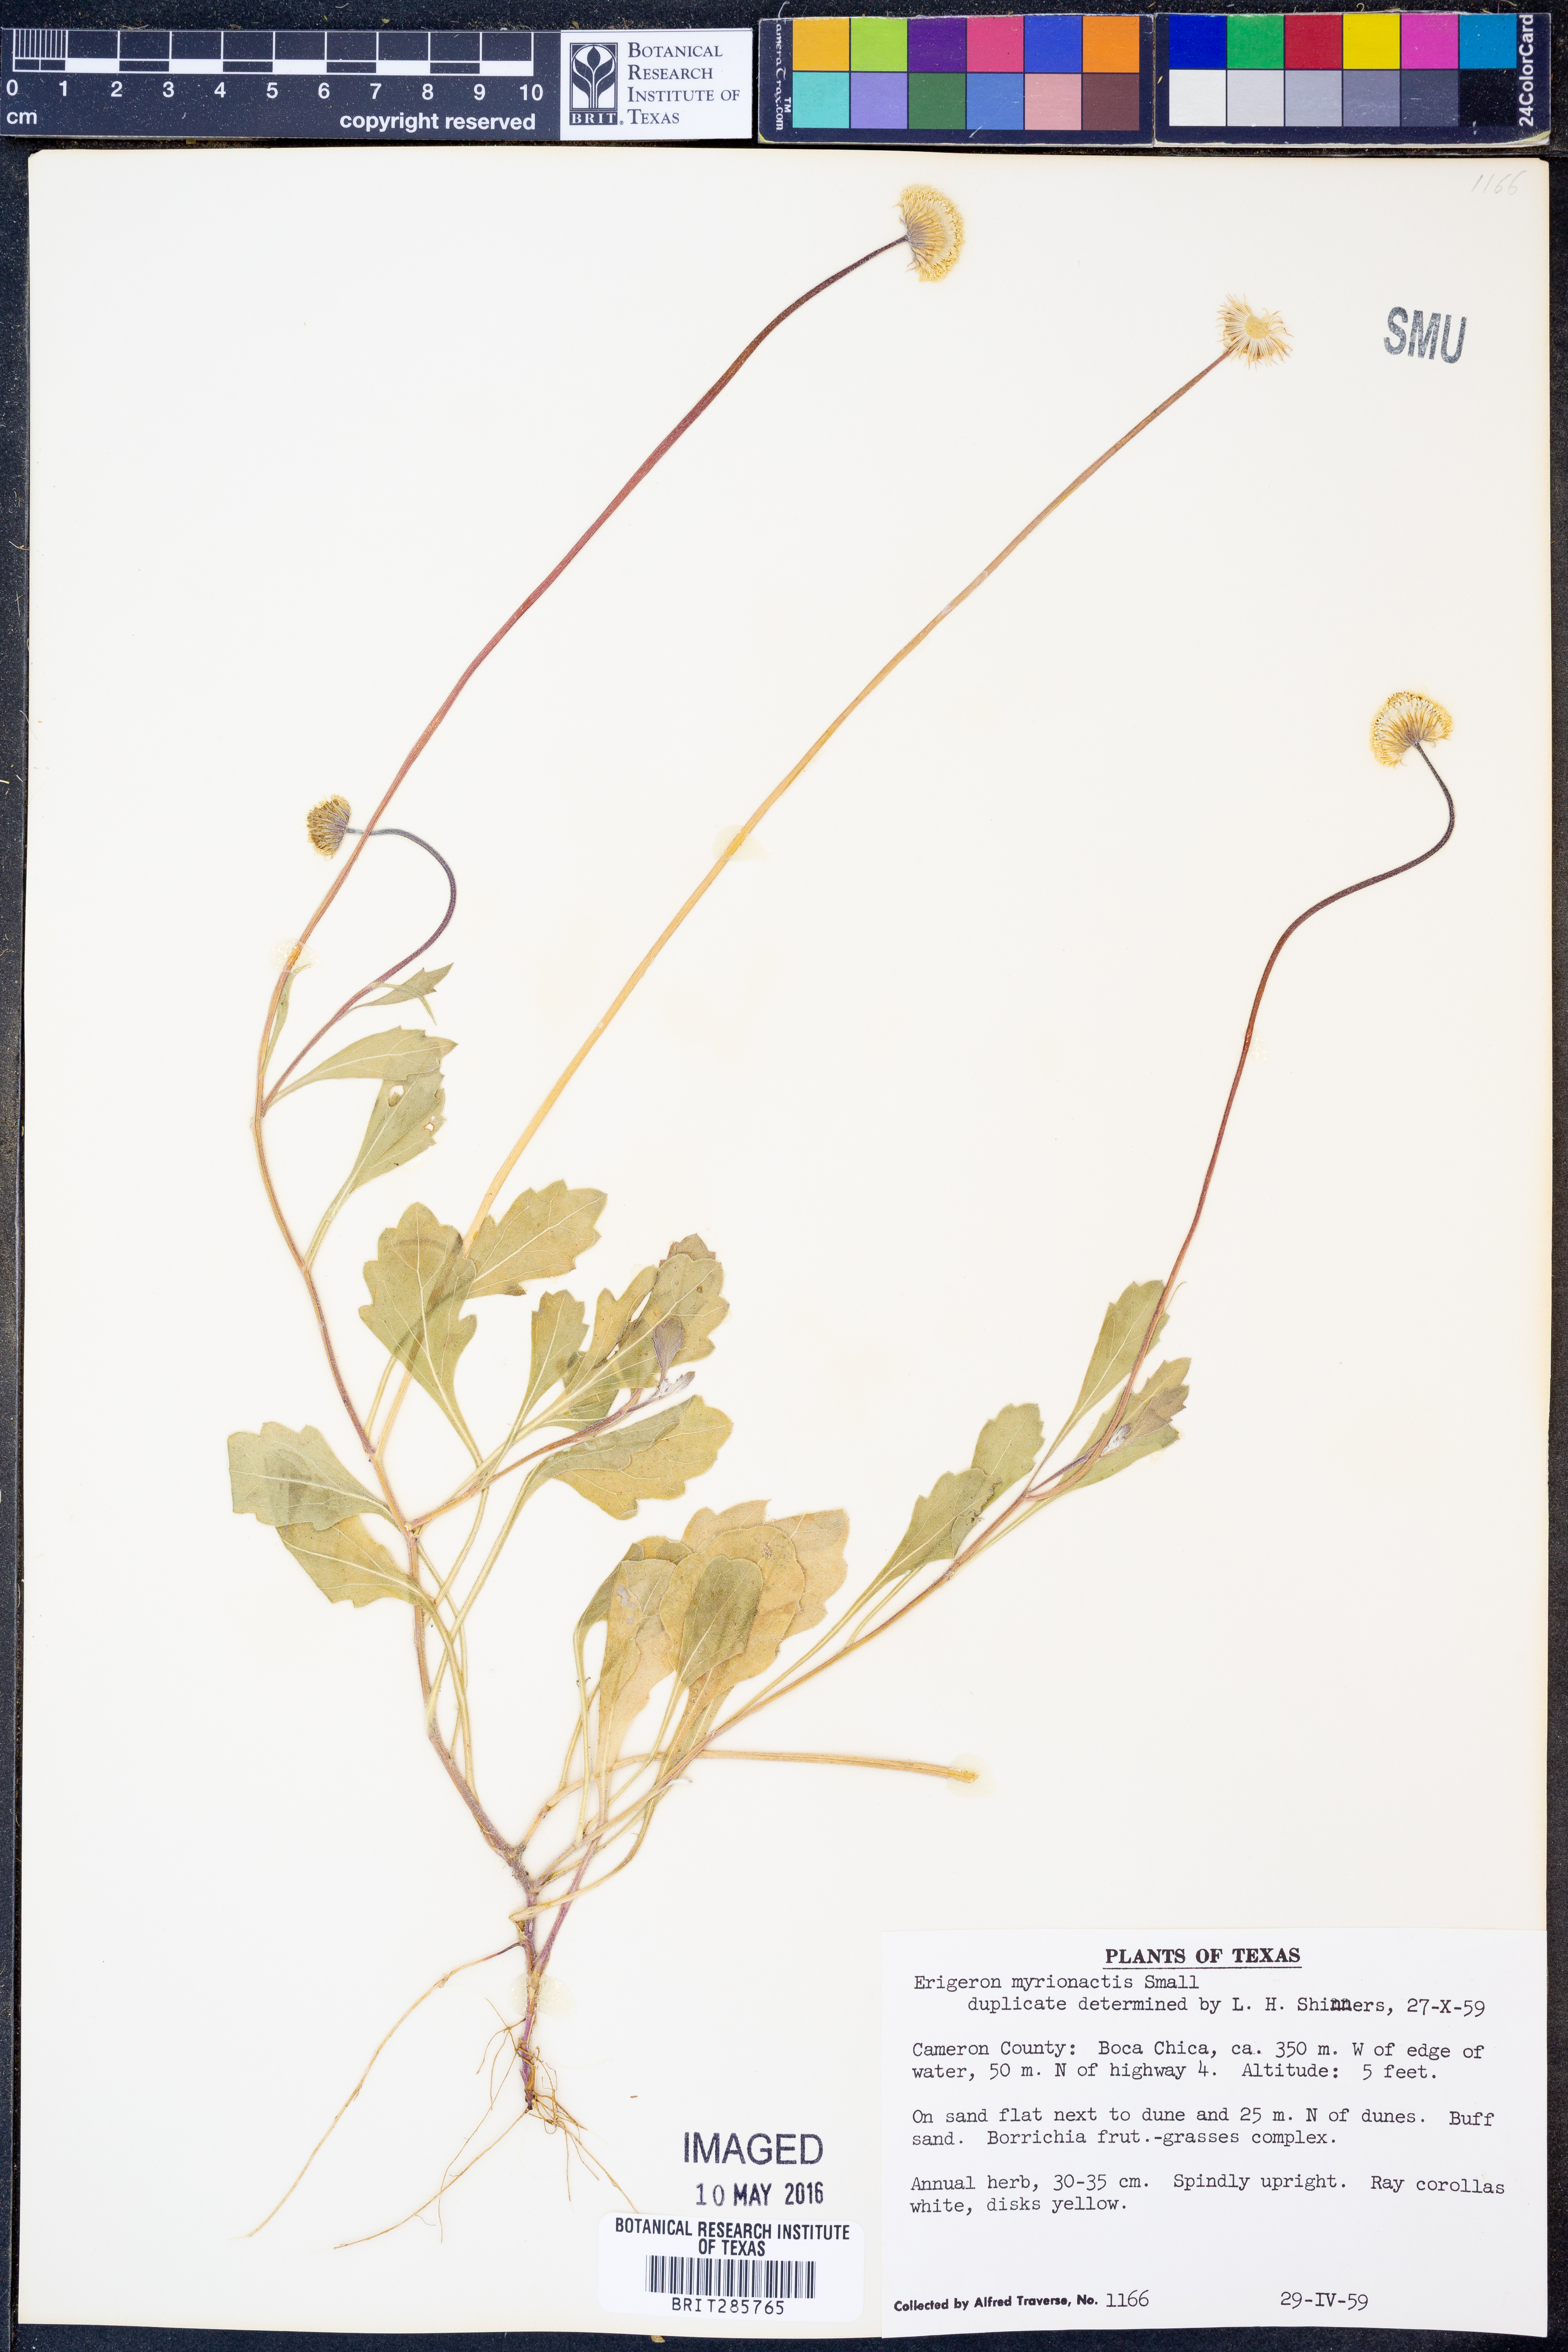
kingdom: Plantae
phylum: Tracheophyta
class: Magnoliopsida
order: Asterales
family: Asteraceae
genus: Erigeron
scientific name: Erigeron procumbens
